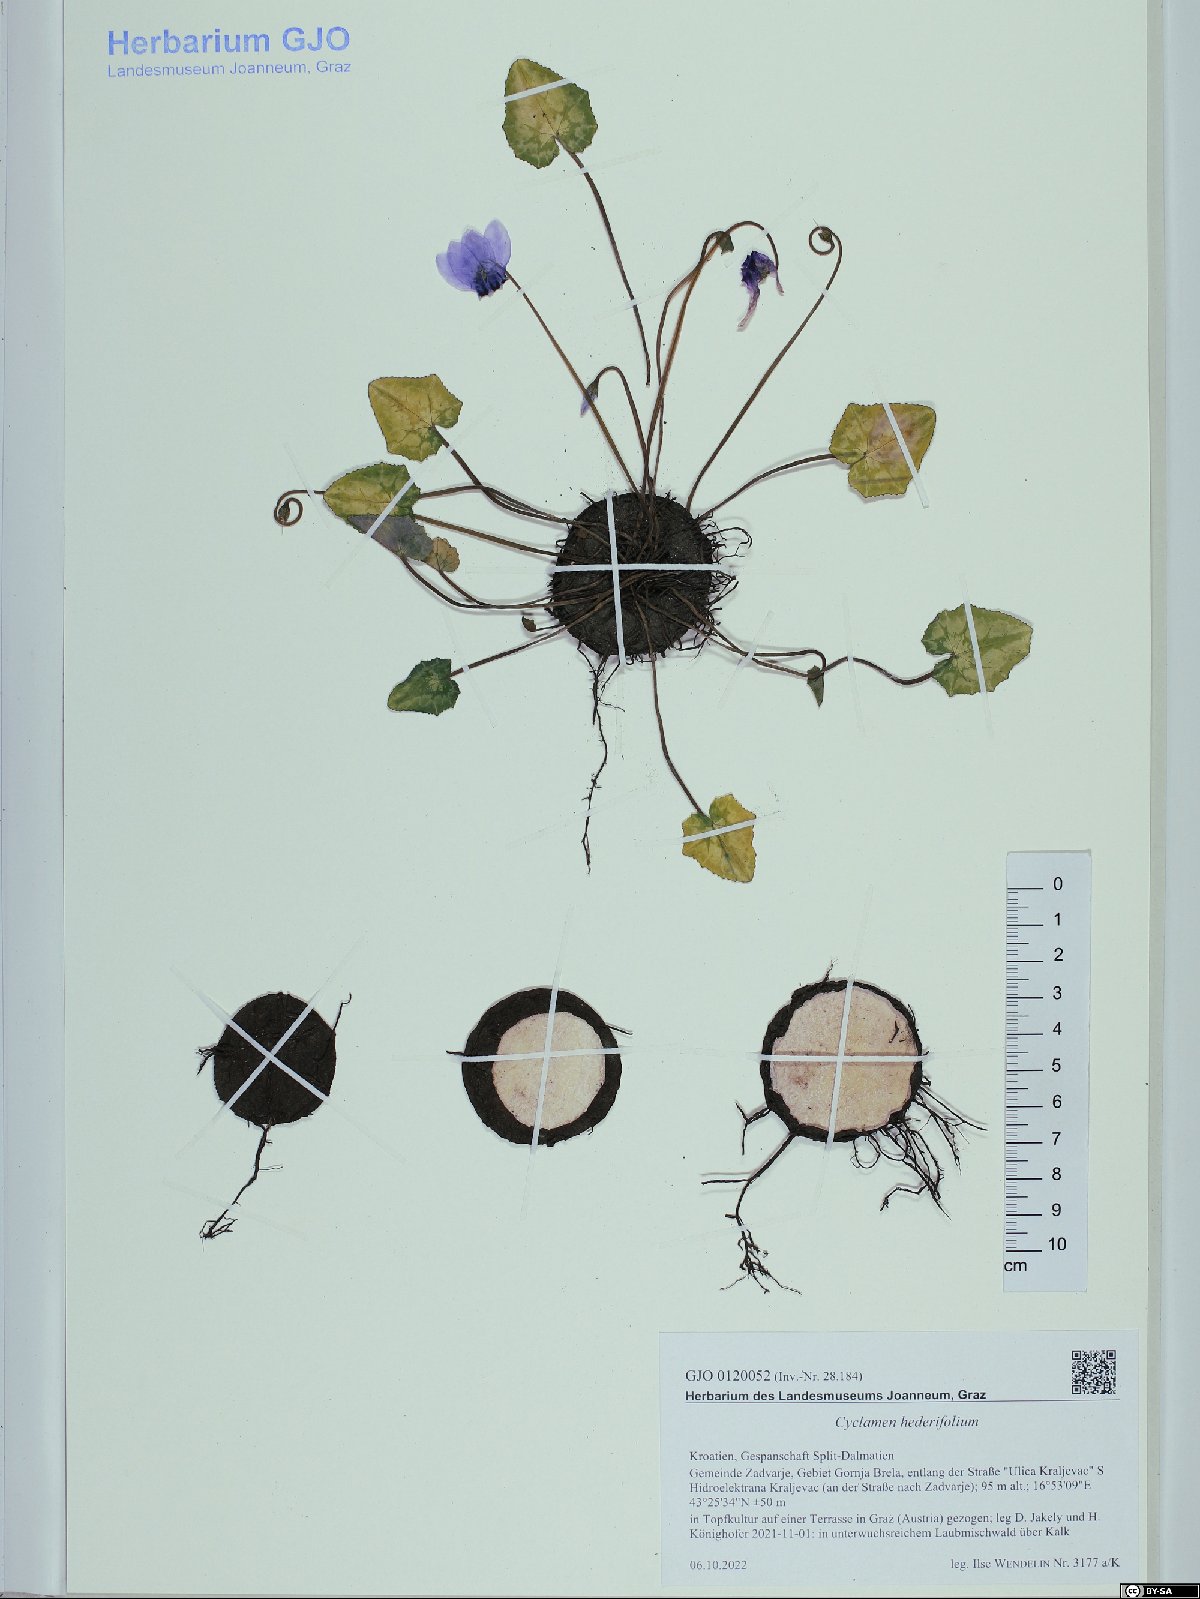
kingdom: Plantae
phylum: Tracheophyta
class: Magnoliopsida
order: Ericales
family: Primulaceae
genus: Cyclamen
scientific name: Cyclamen hederifolium
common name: Sowbread
